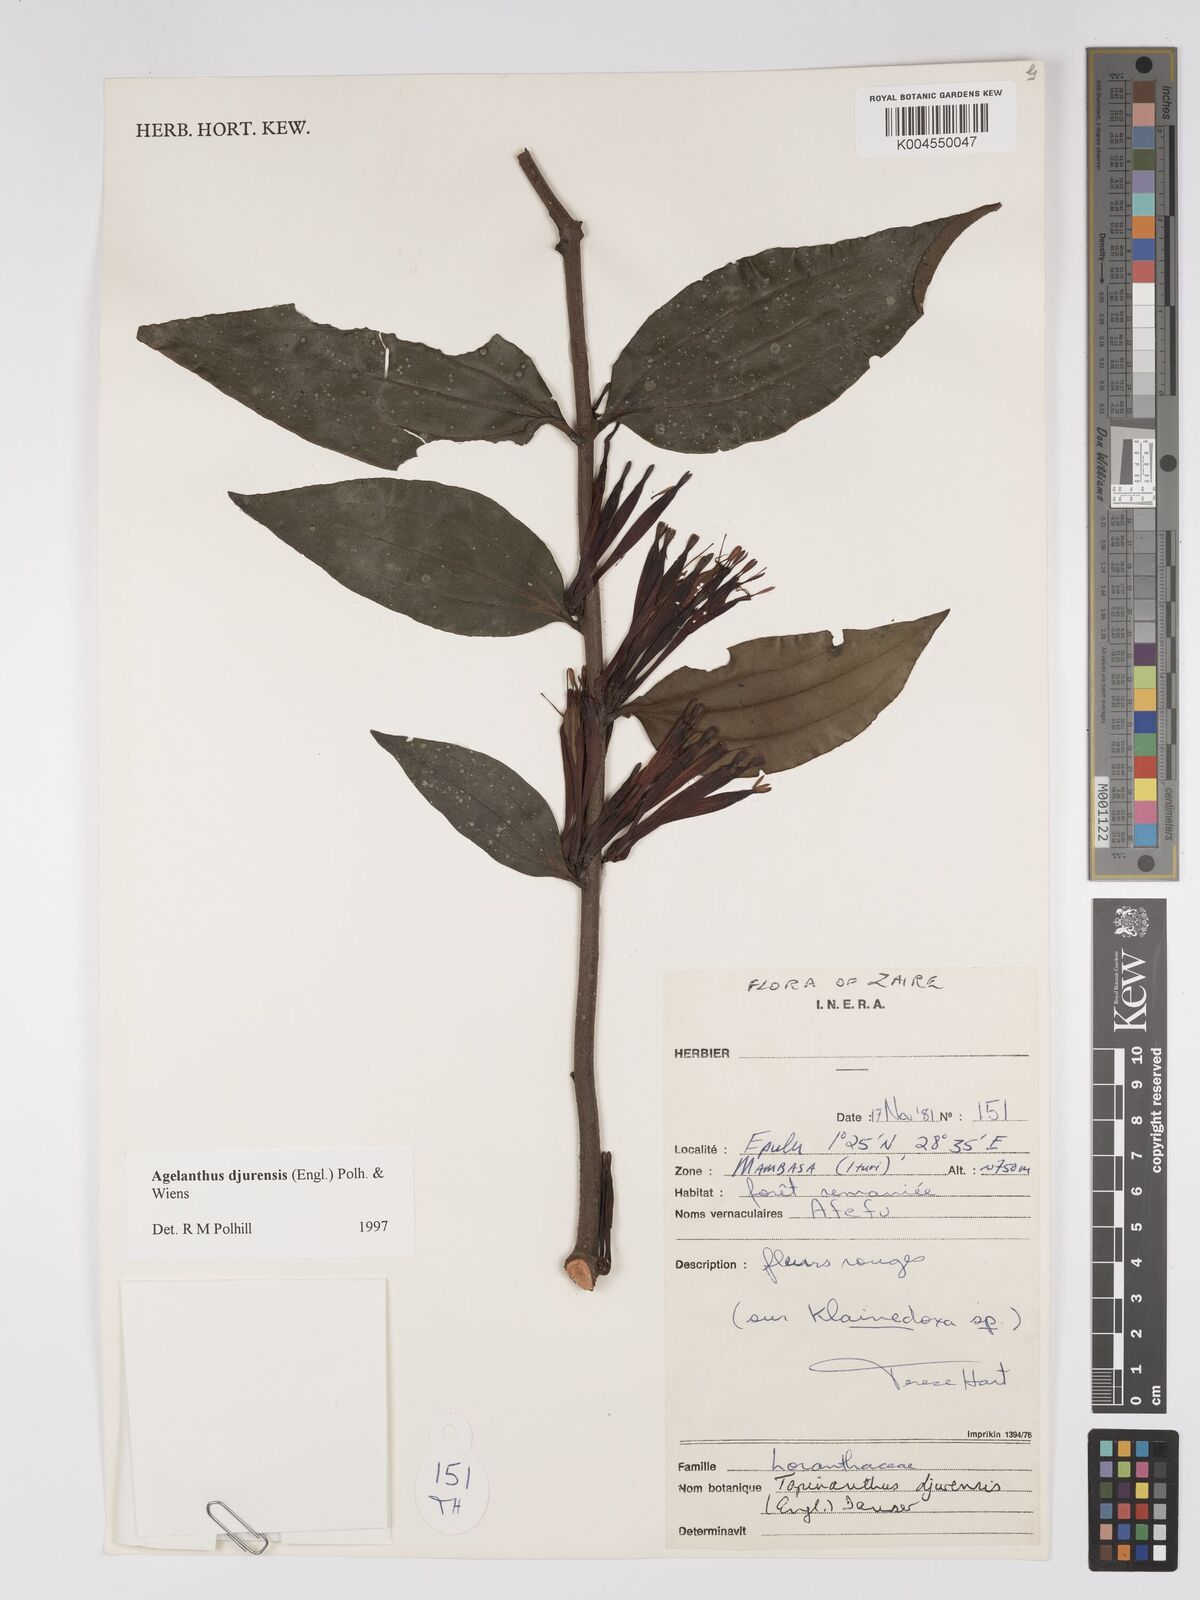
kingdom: Plantae
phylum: Tracheophyta
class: Magnoliopsida
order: Santalales
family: Loranthaceae
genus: Agelanthus
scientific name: Agelanthus djurensis
